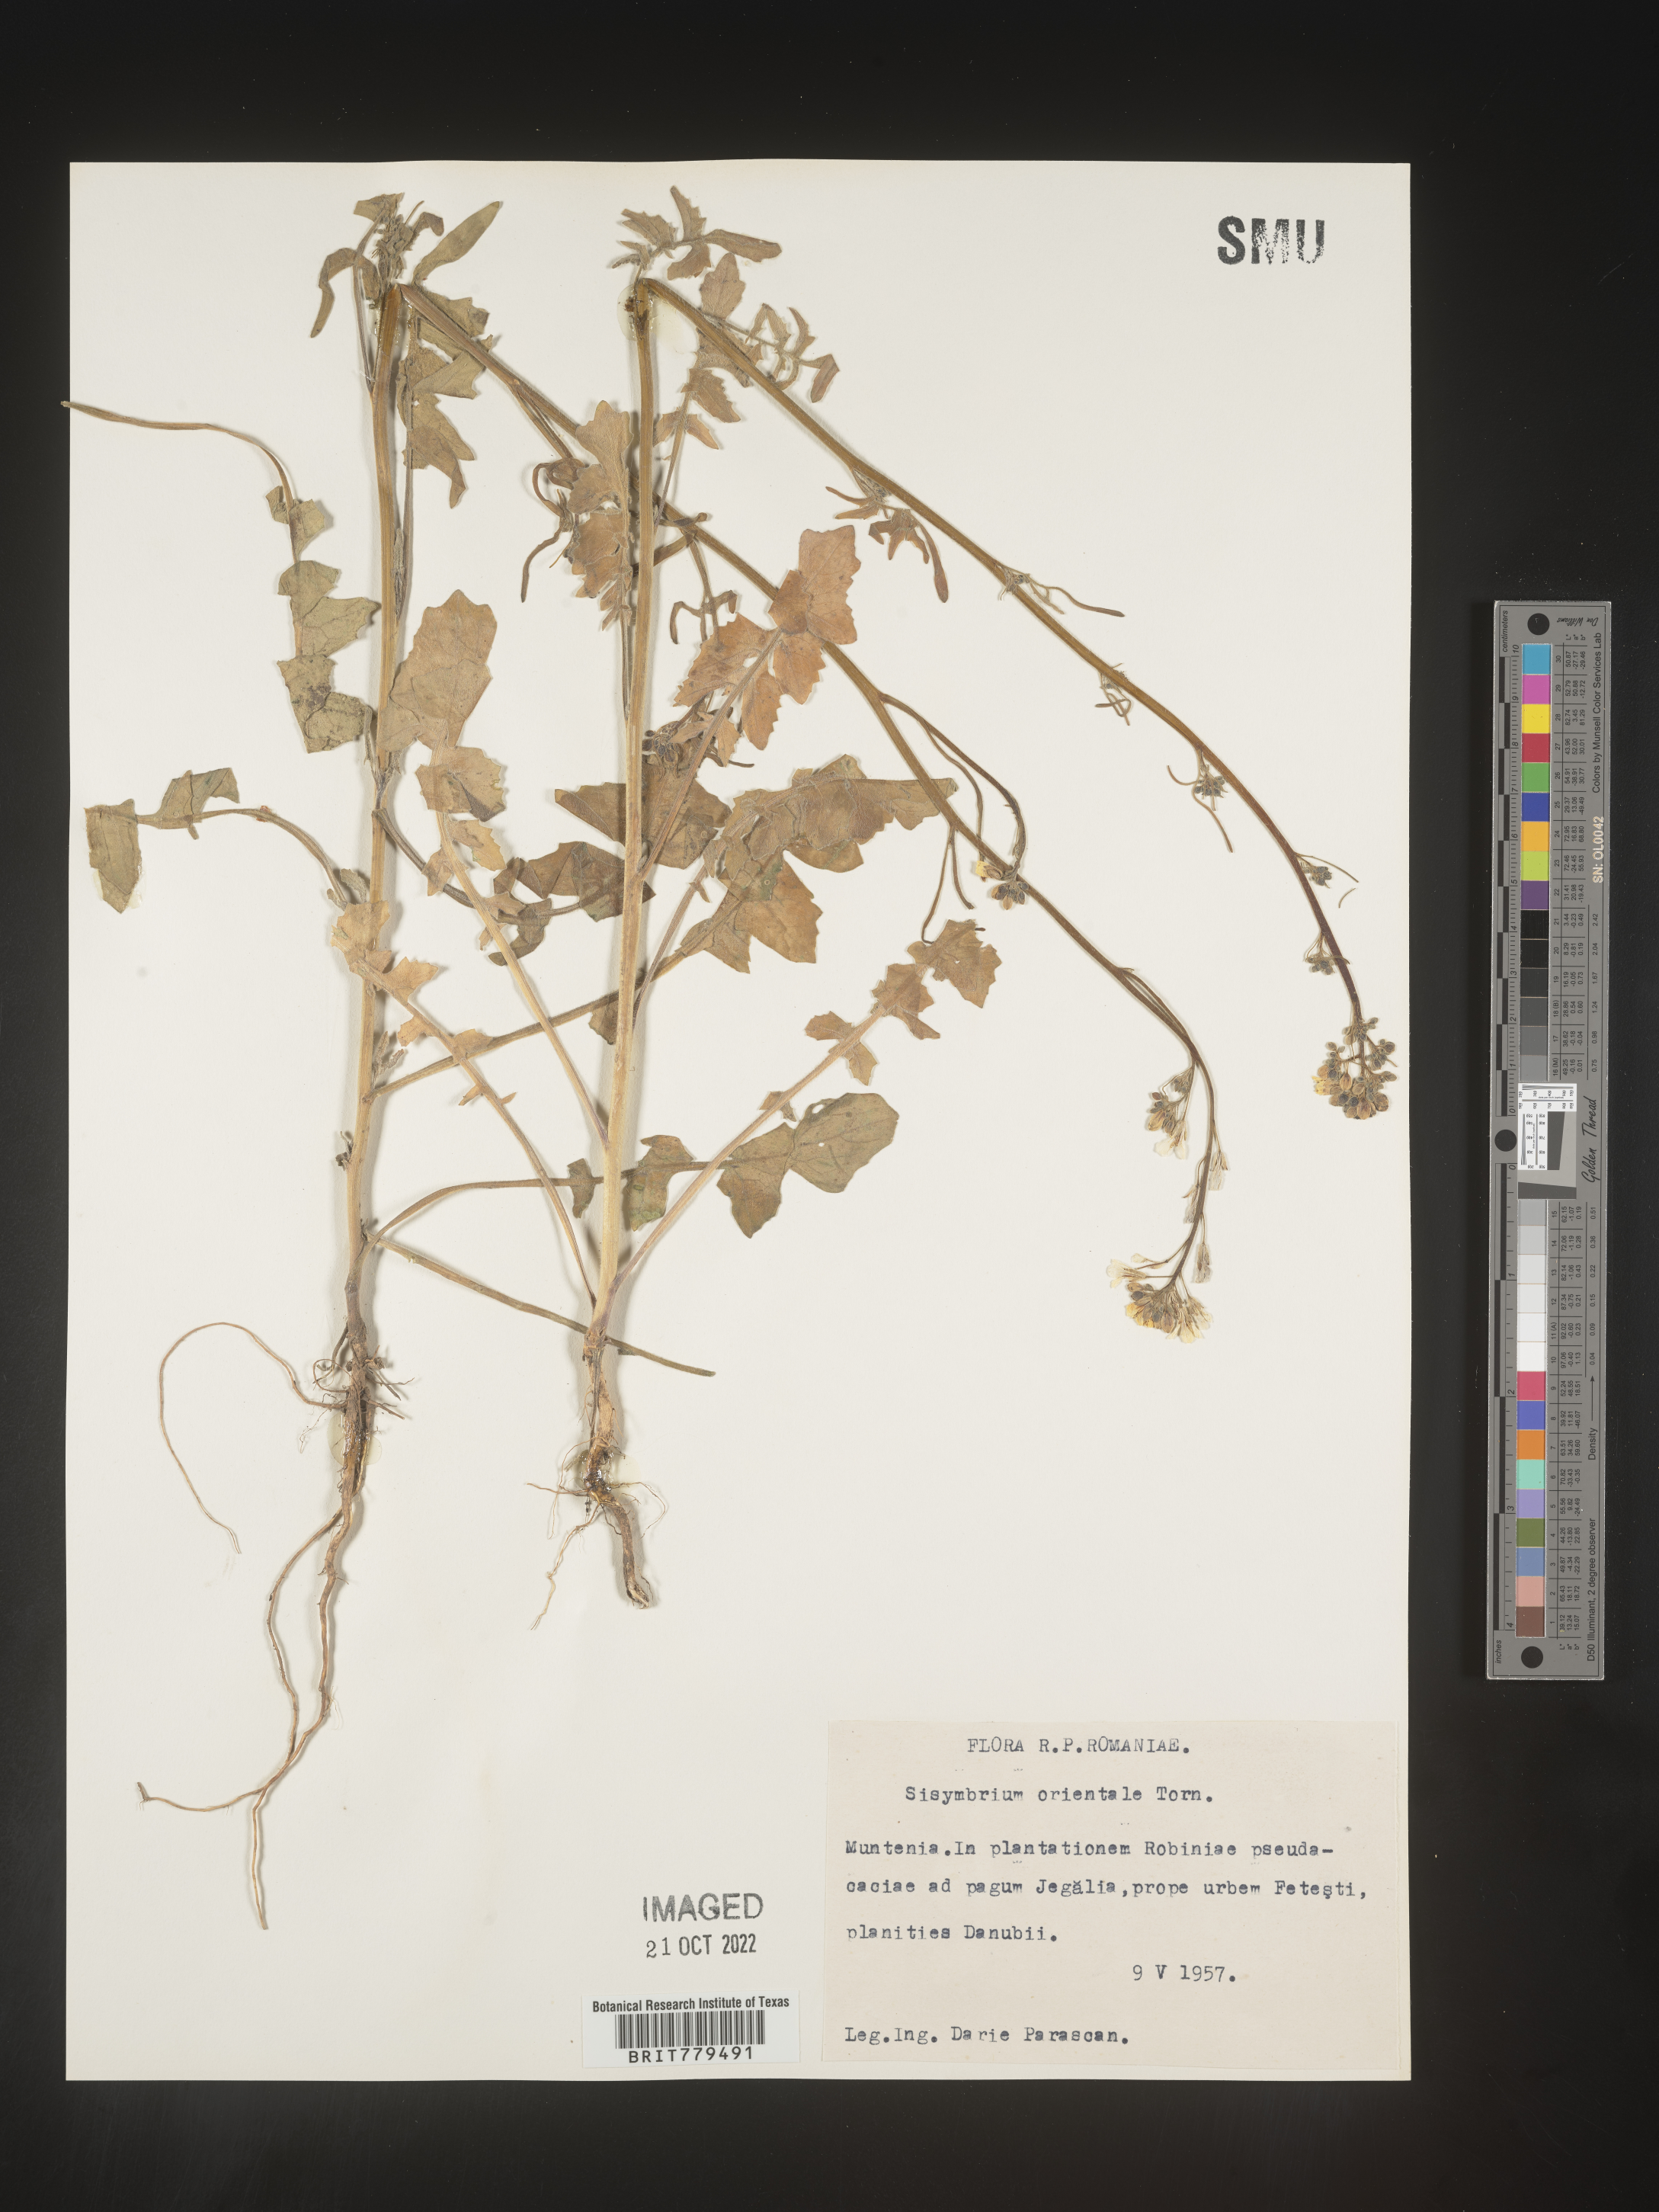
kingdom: Plantae
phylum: Tracheophyta
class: Magnoliopsida
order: Brassicales
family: Brassicaceae
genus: Sisymbrium
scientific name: Sisymbrium
